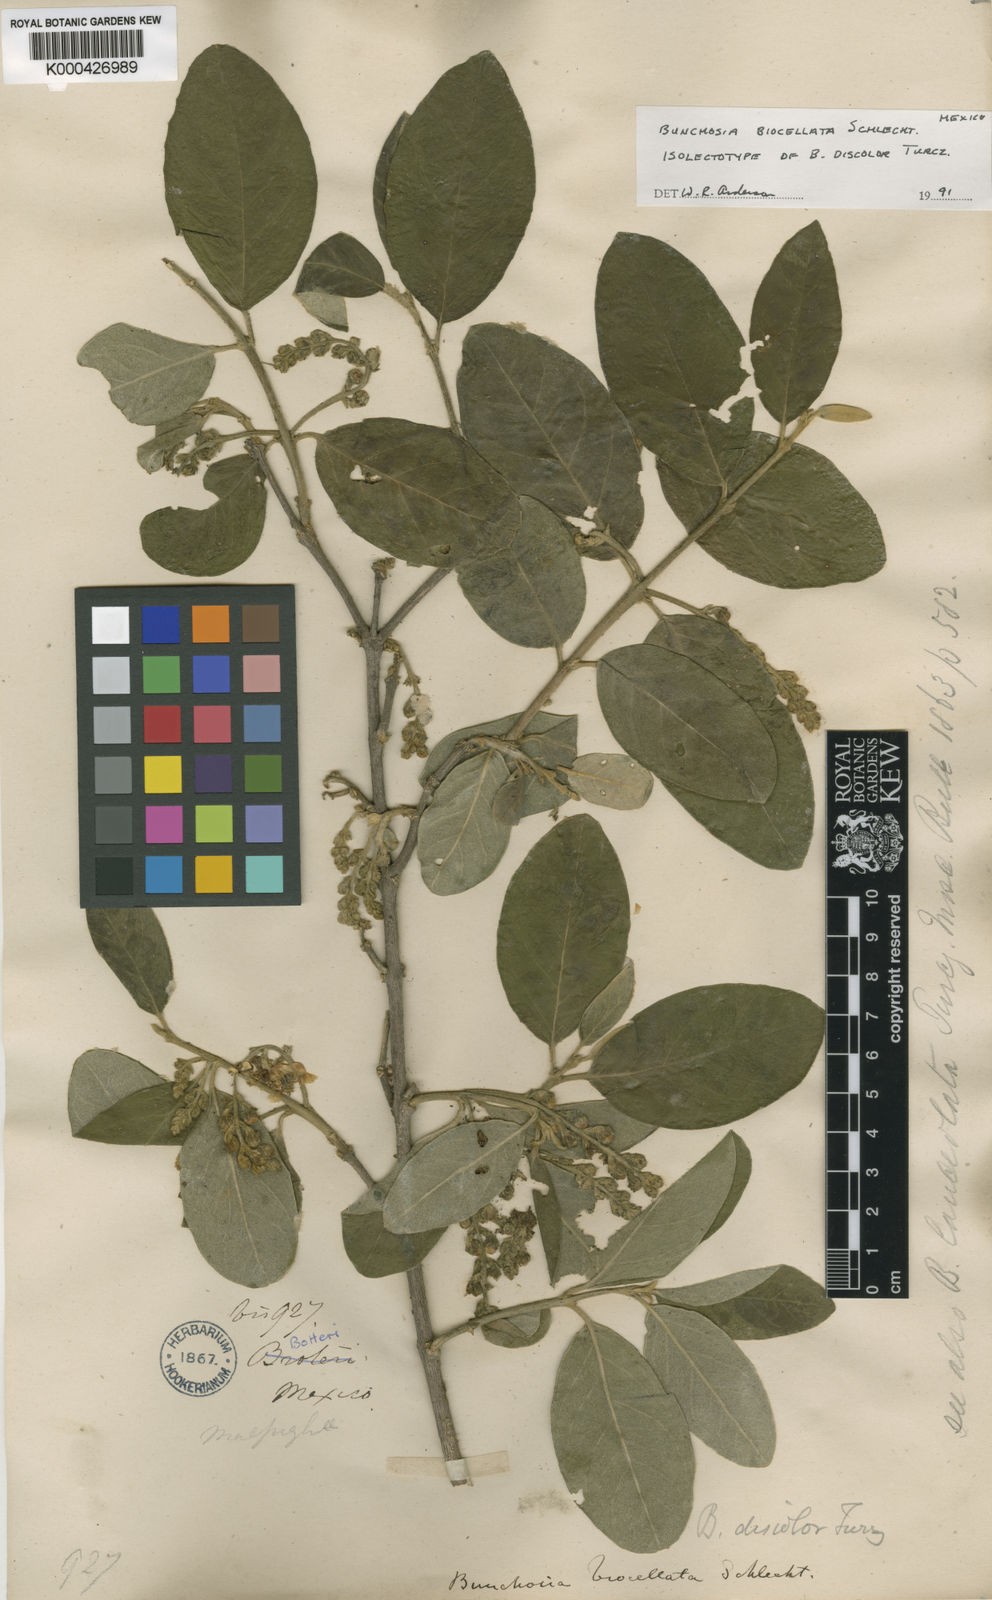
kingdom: Plantae
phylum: Tracheophyta
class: Magnoliopsida
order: Malpighiales
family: Malpighiaceae
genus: Bunchosia
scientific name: Bunchosia biocellata
